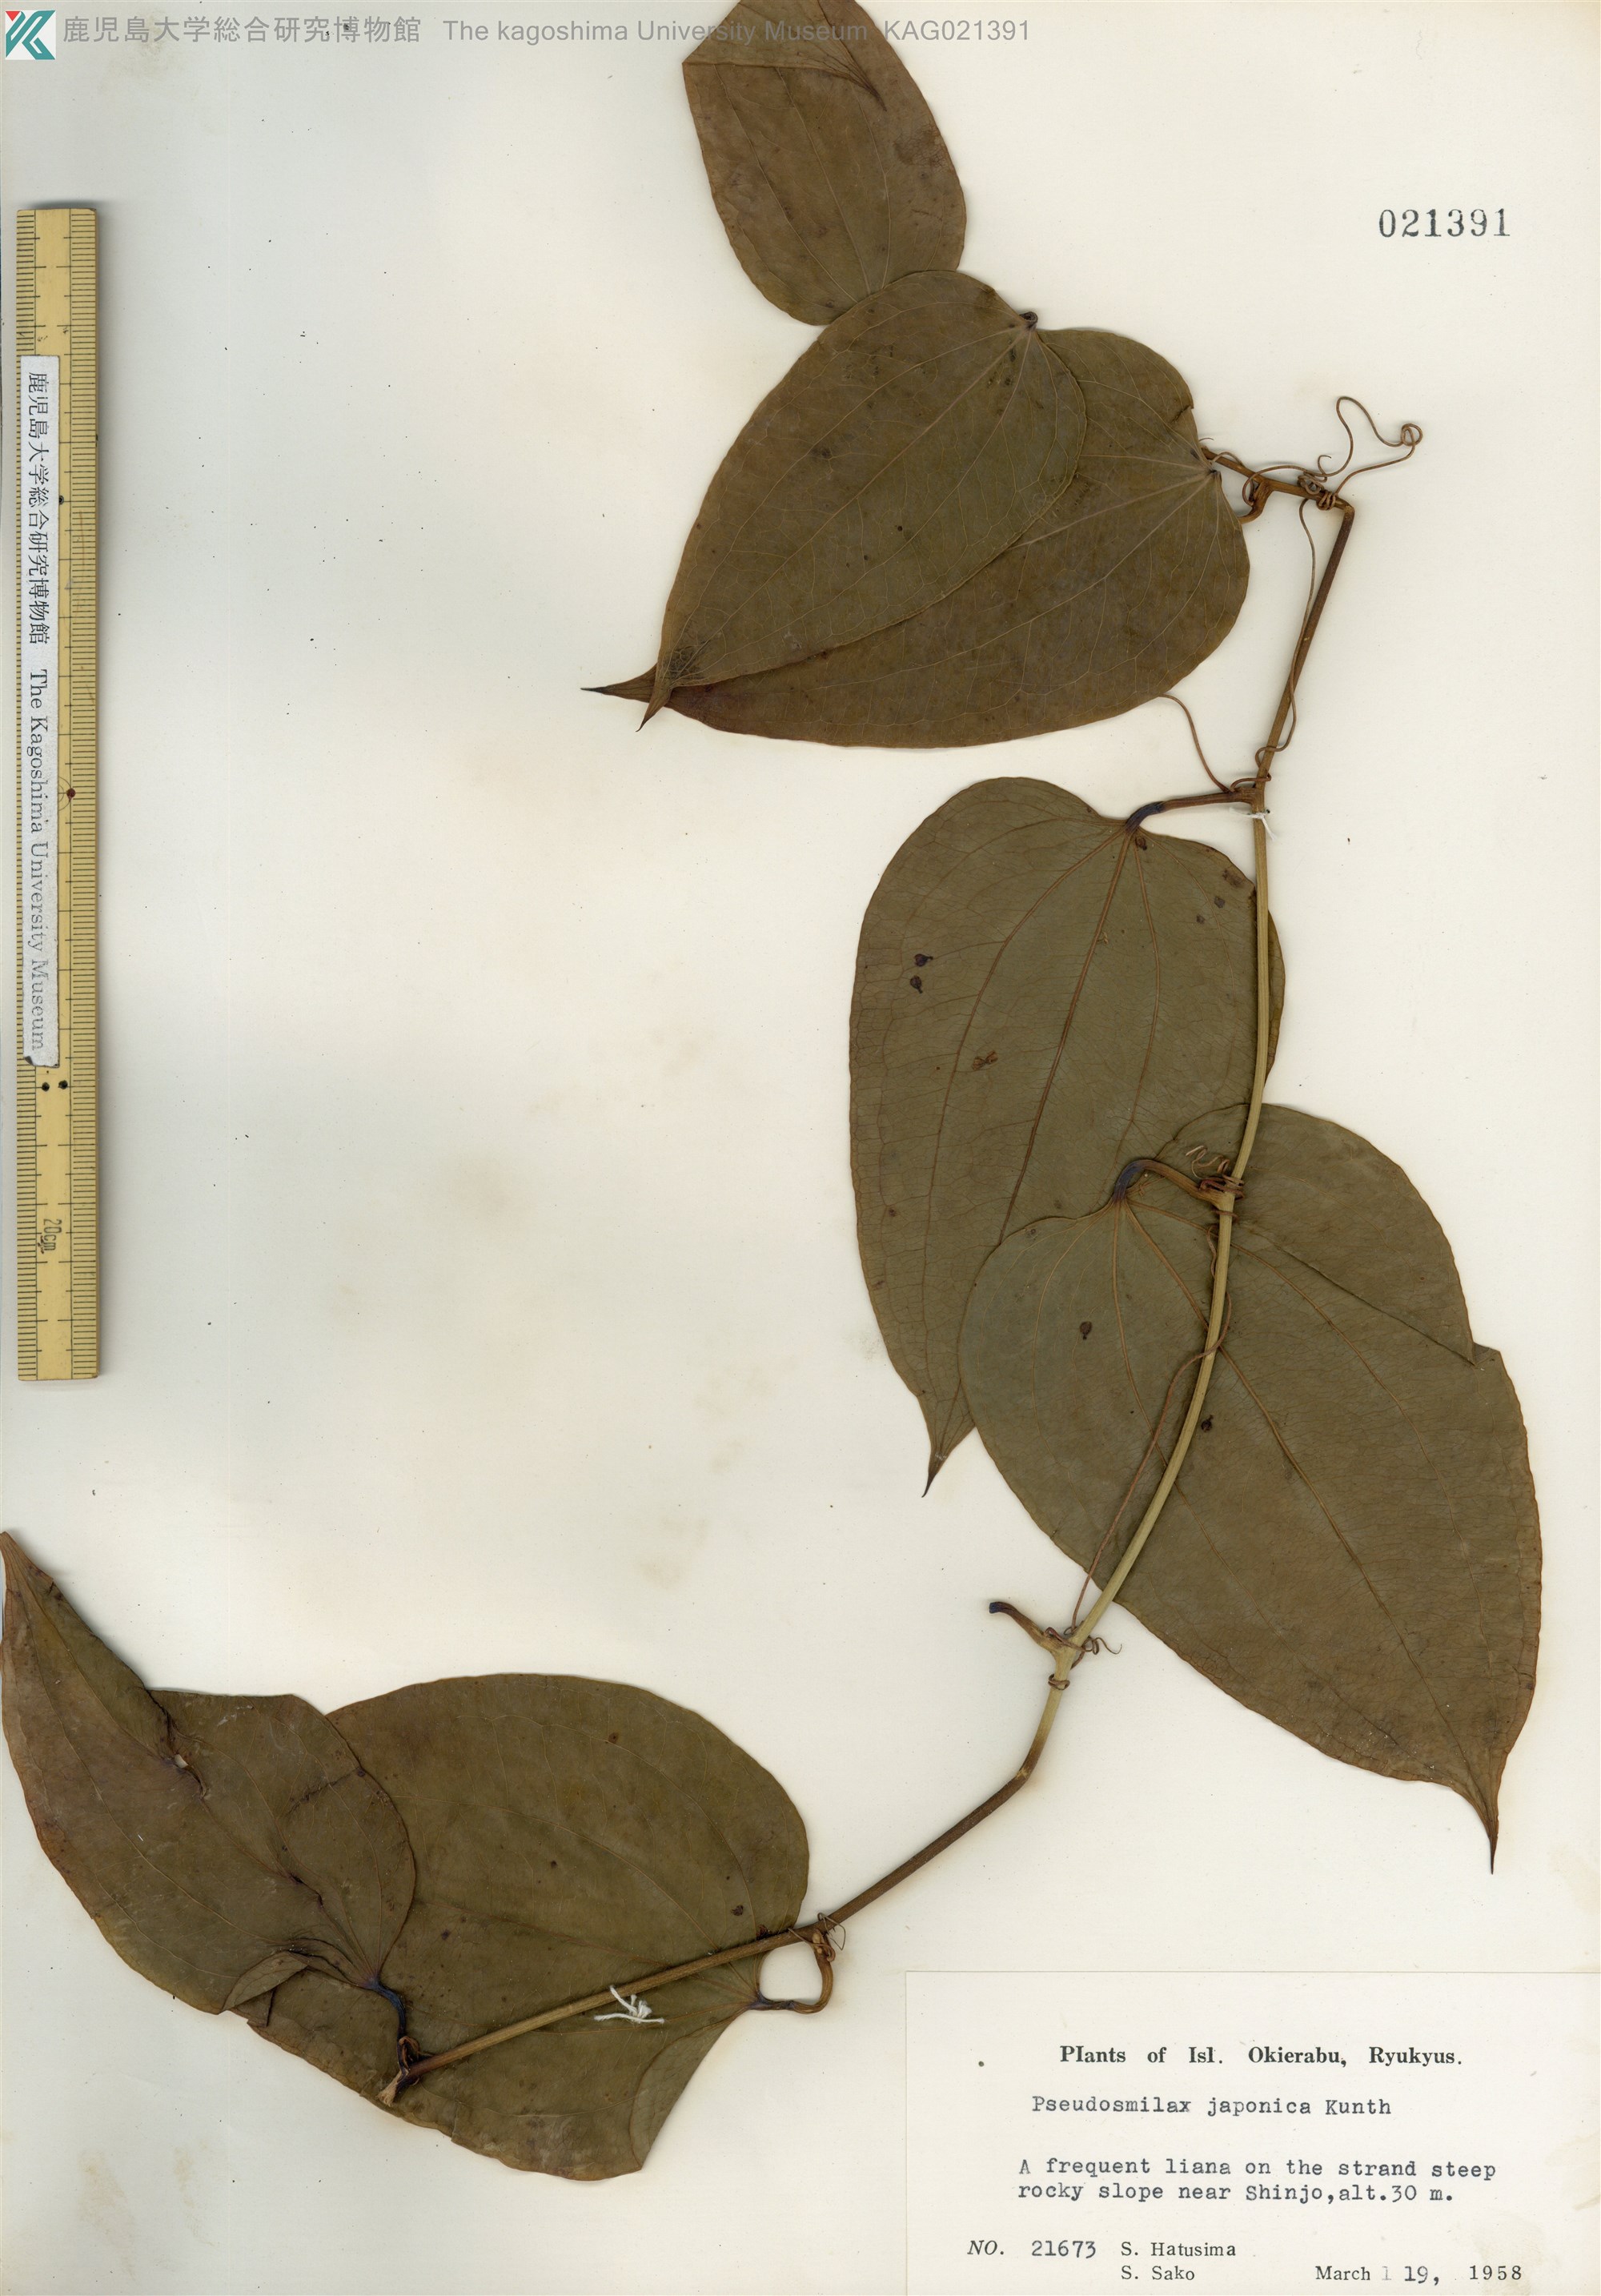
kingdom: Plantae
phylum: Tracheophyta
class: Liliopsida
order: Liliales
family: Smilacaceae
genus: Smilax
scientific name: Smilax insularis
